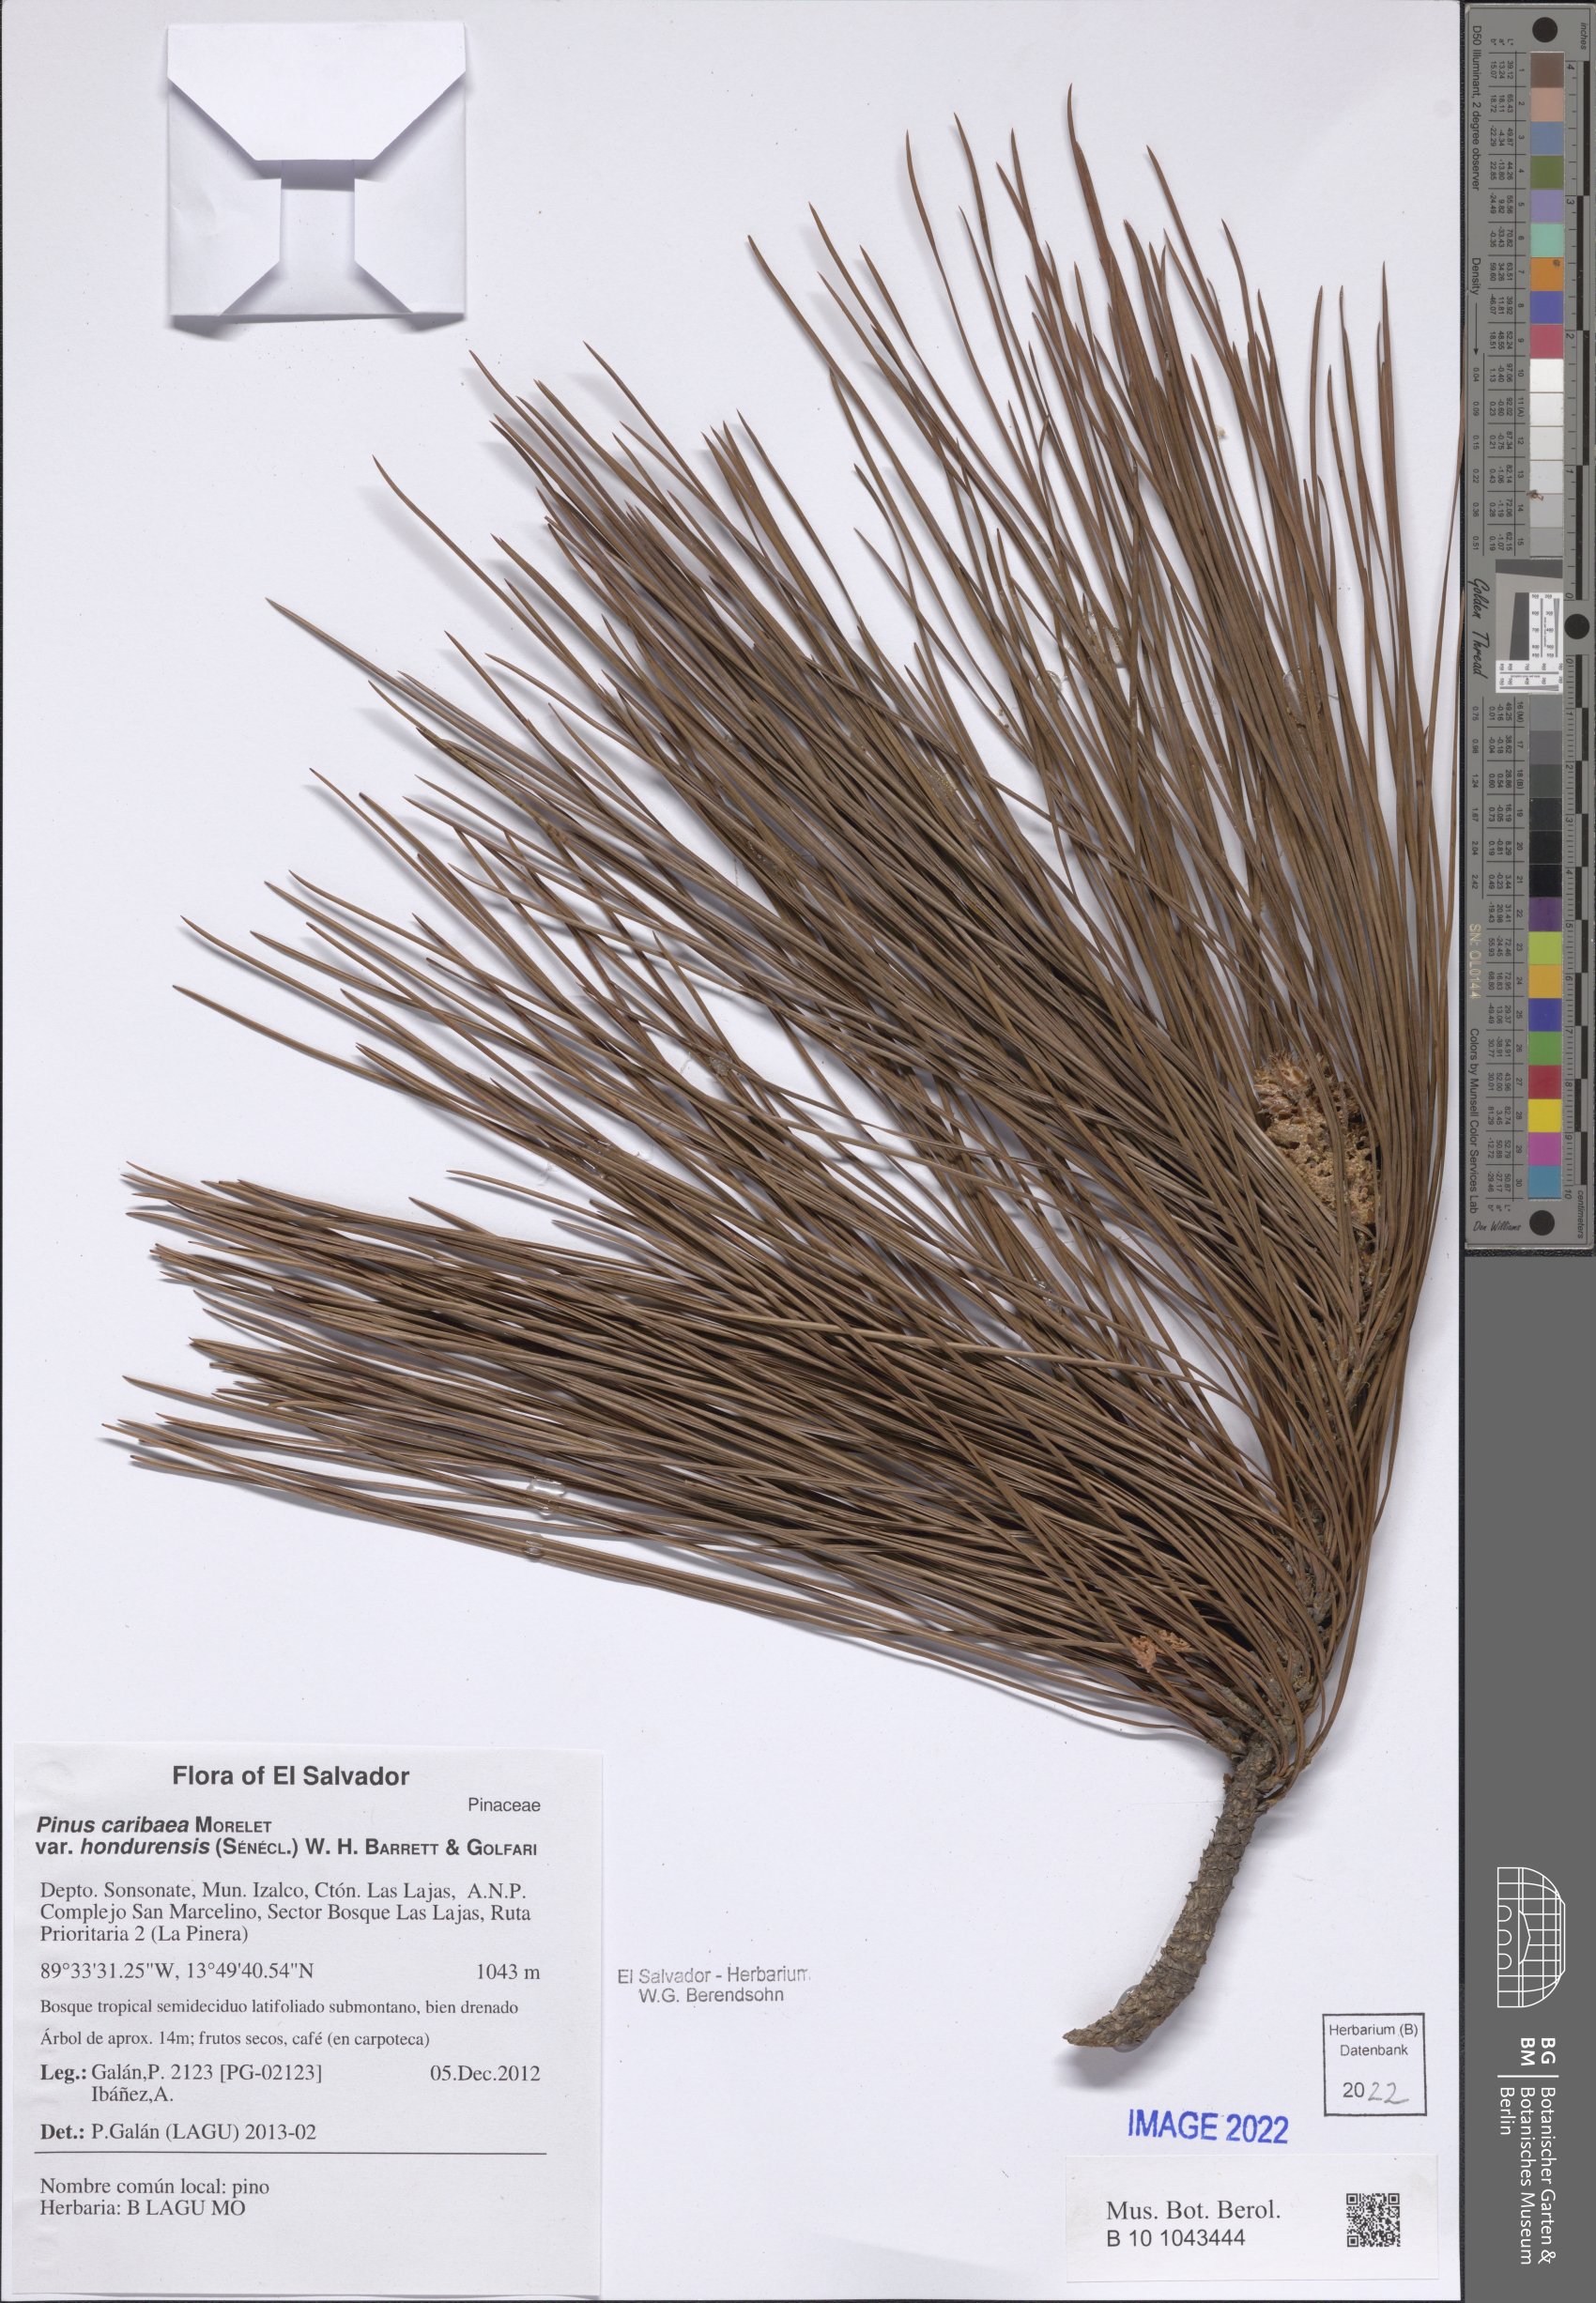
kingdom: Plantae
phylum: Tracheophyta
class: Pinopsida
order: Pinales
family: Pinaceae
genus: Pinus
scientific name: Pinus caribaea
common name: Caribbean pine
